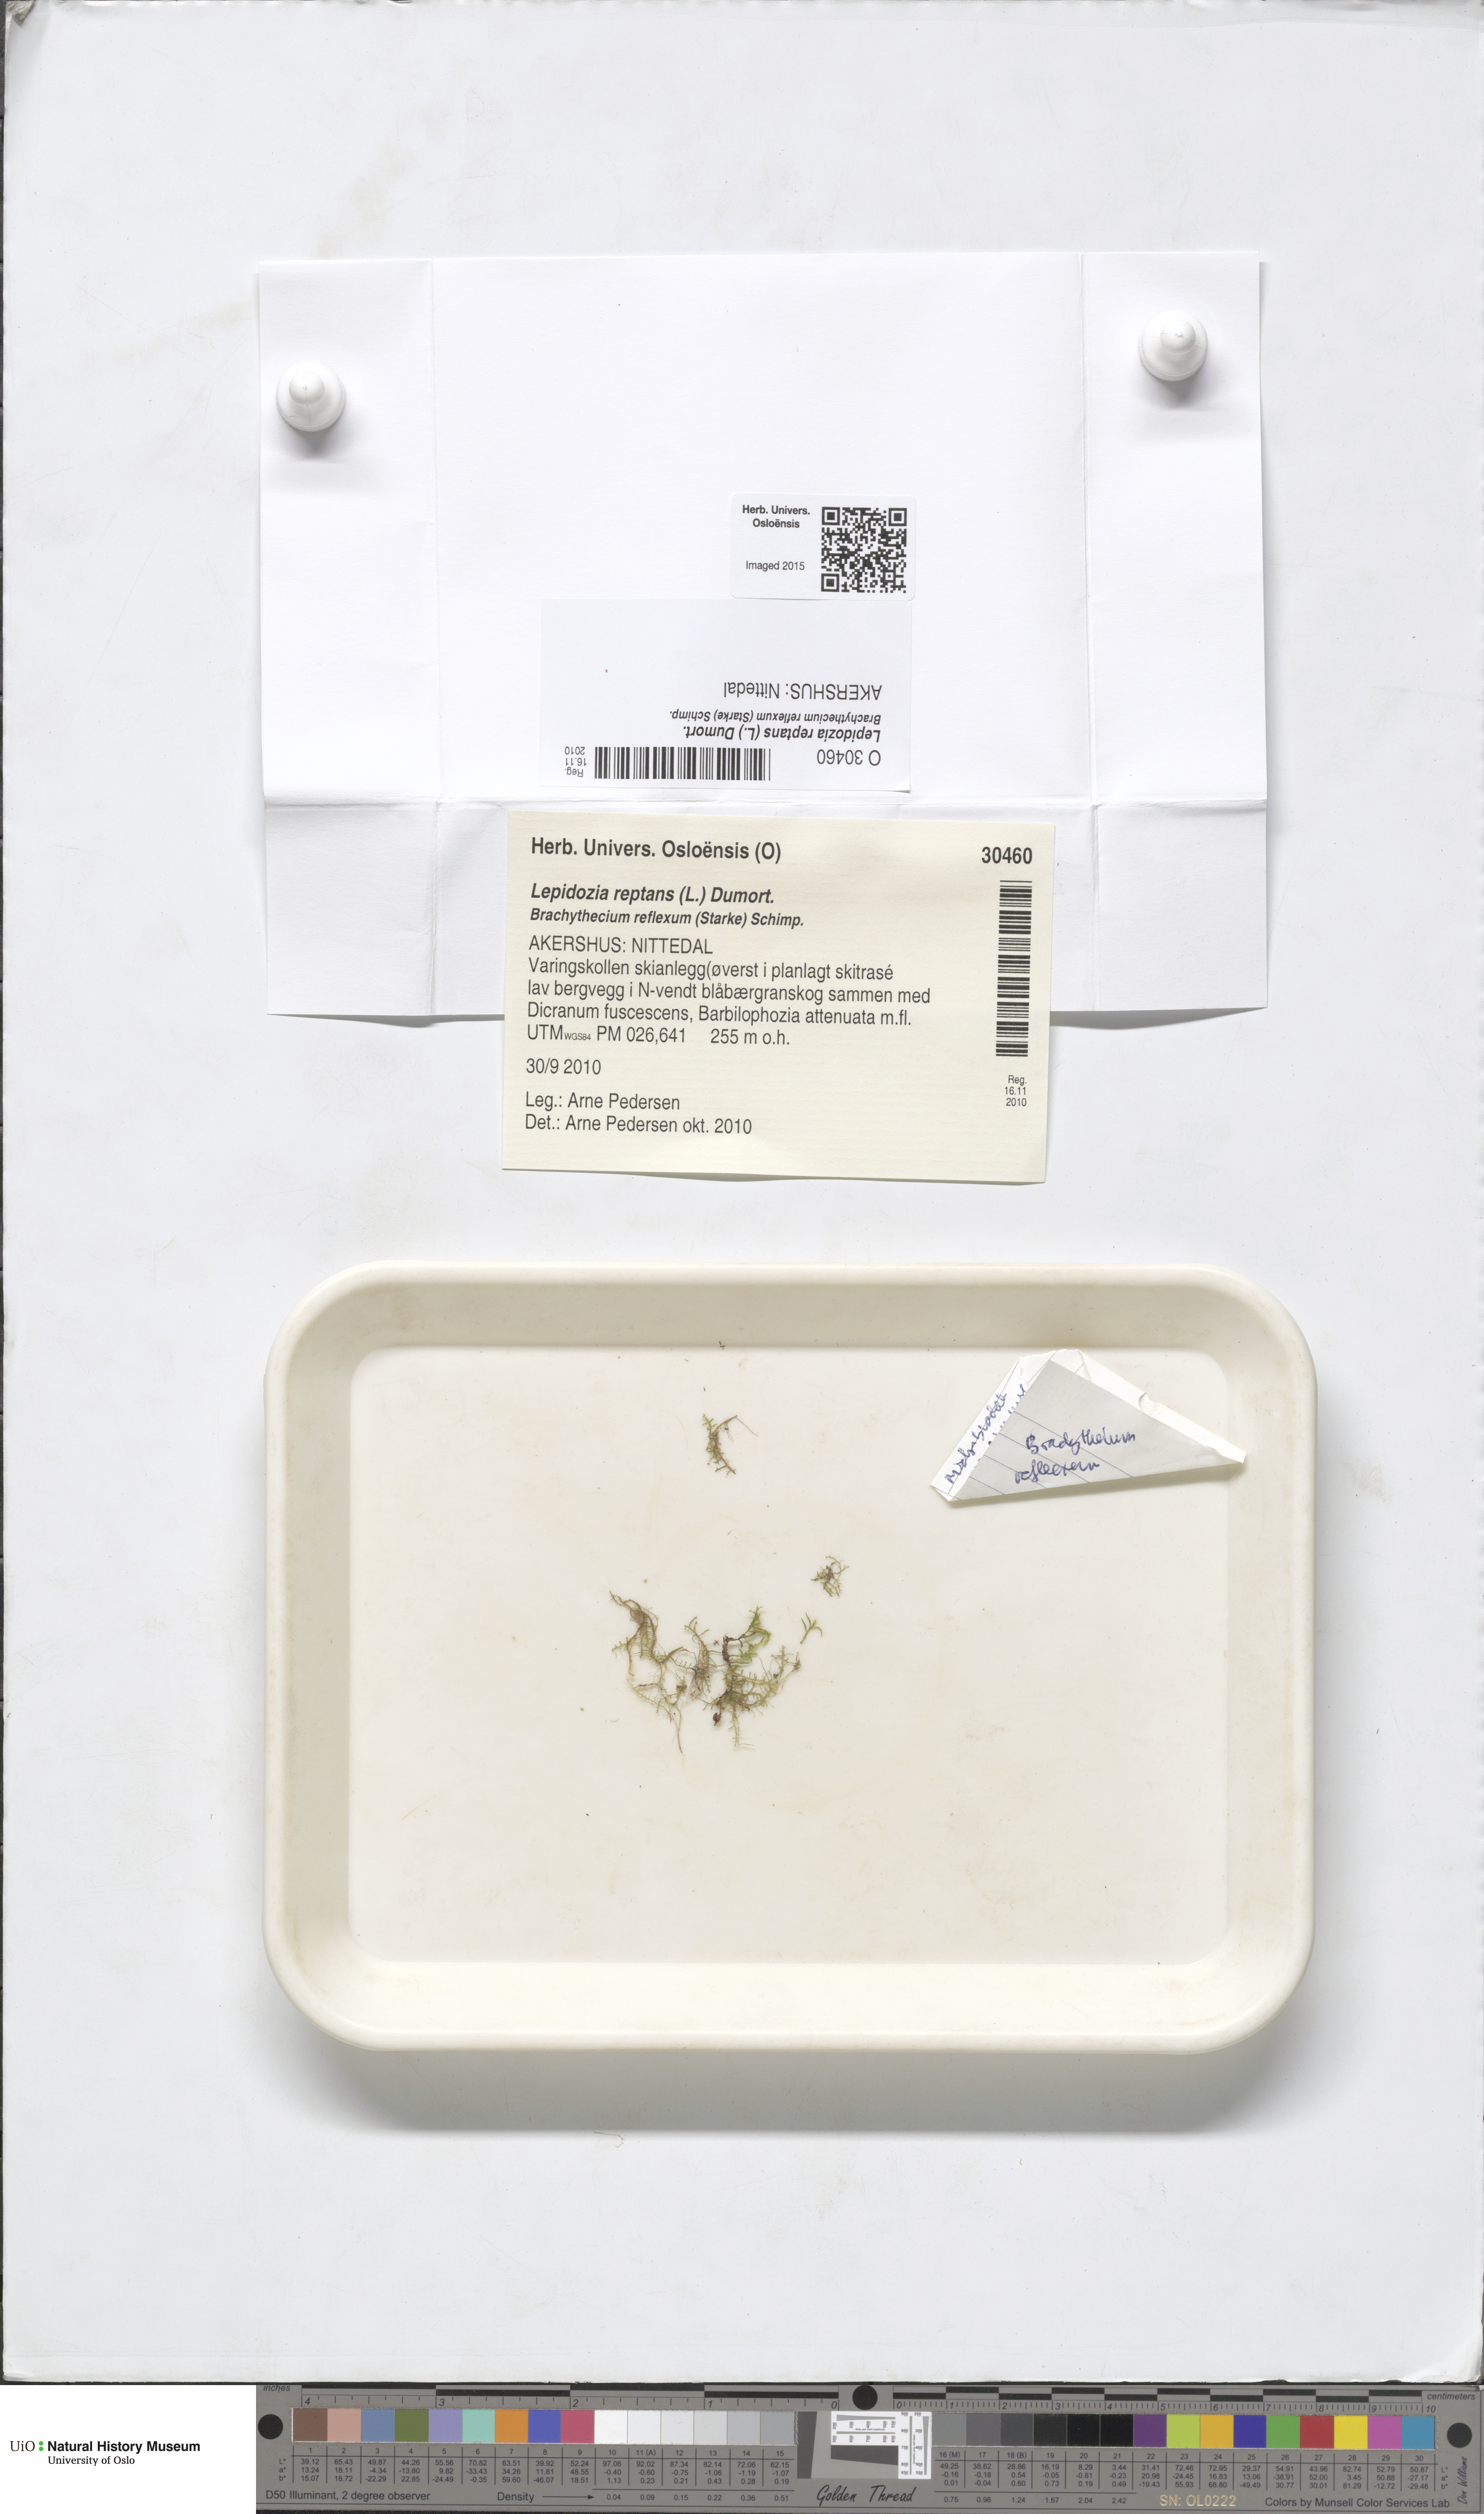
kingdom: Plantae
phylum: Marchantiophyta
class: Jungermanniopsida
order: Jungermanniales
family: Lepidoziaceae
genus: Lepidozia
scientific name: Lepidozia reptans
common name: Creeping fingerwort
